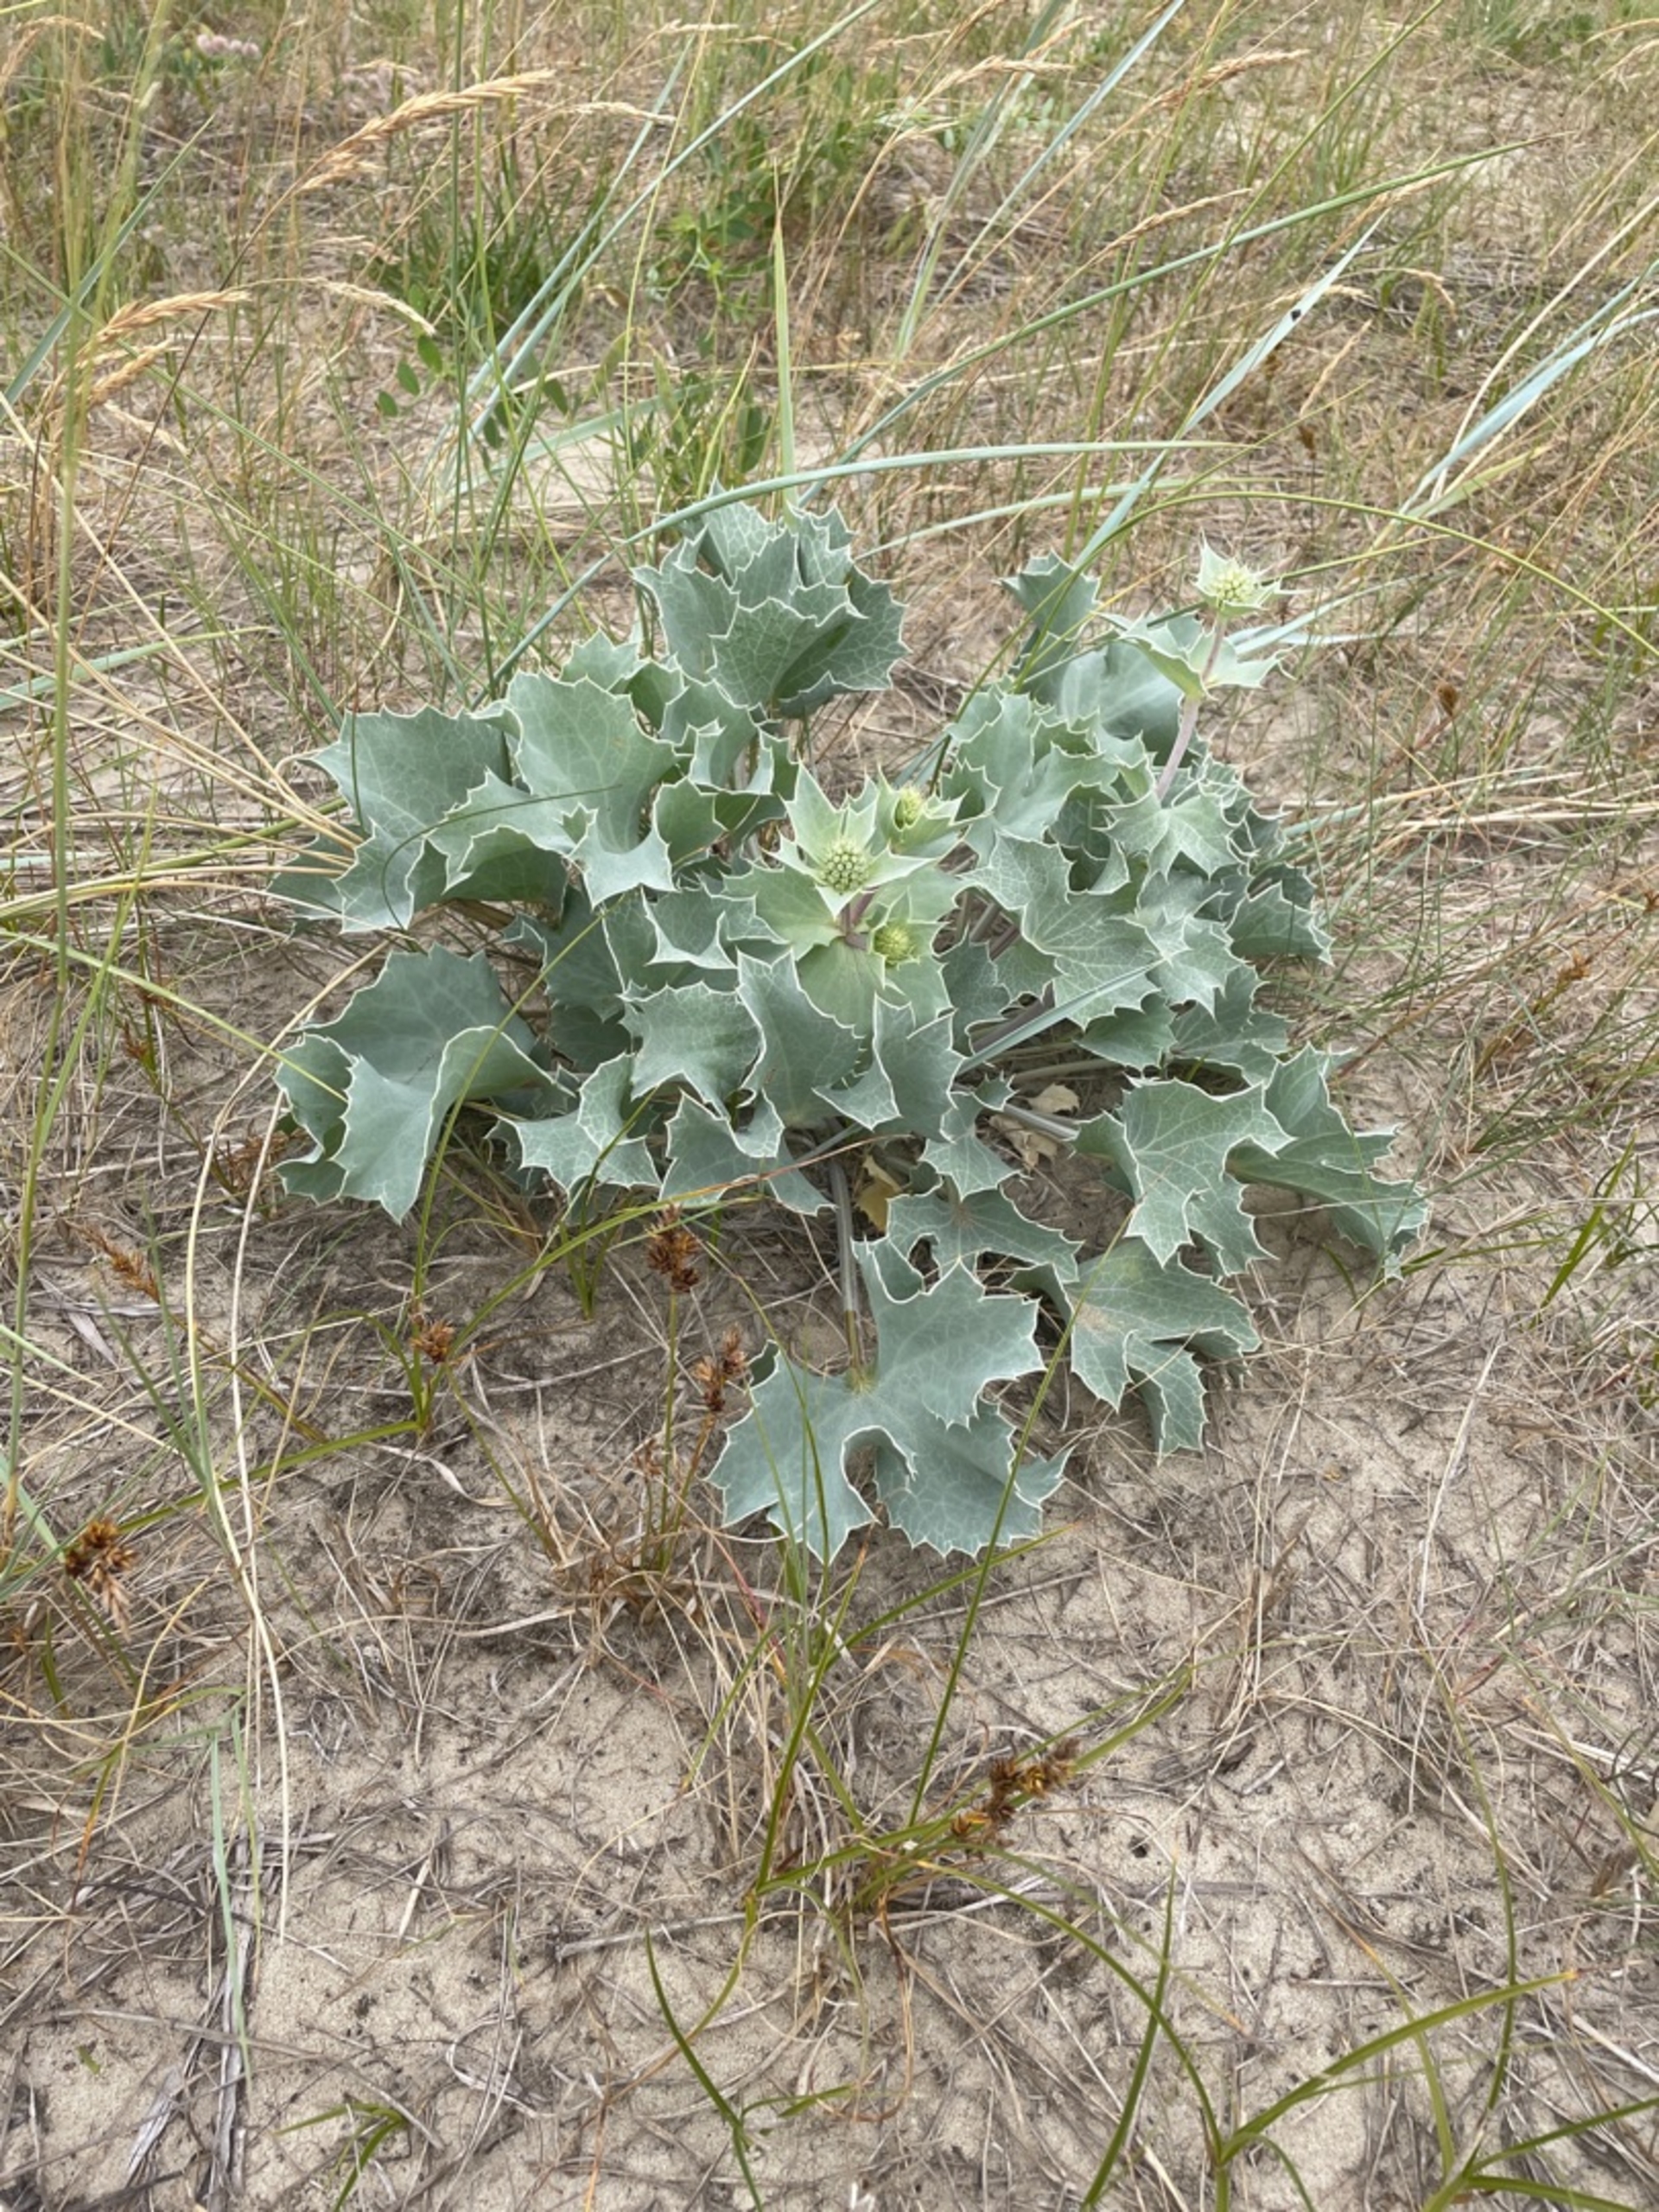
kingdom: Plantae
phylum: Tracheophyta
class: Magnoliopsida
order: Apiales
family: Apiaceae
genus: Eryngium
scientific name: Eryngium maritimum
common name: Strand-mandstro
